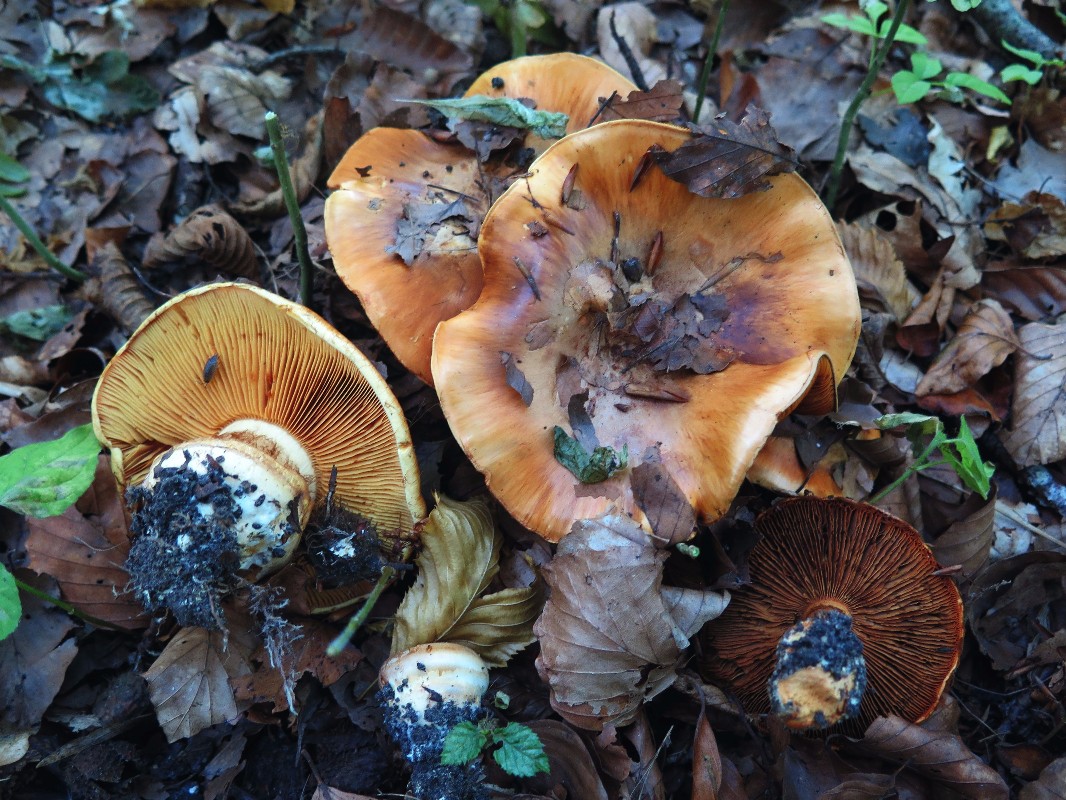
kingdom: Fungi
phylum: Basidiomycota
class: Agaricomycetes
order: Agaricales
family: Cortinariaceae
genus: Calonarius
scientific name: Calonarius olearioides
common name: safran-slørhat
